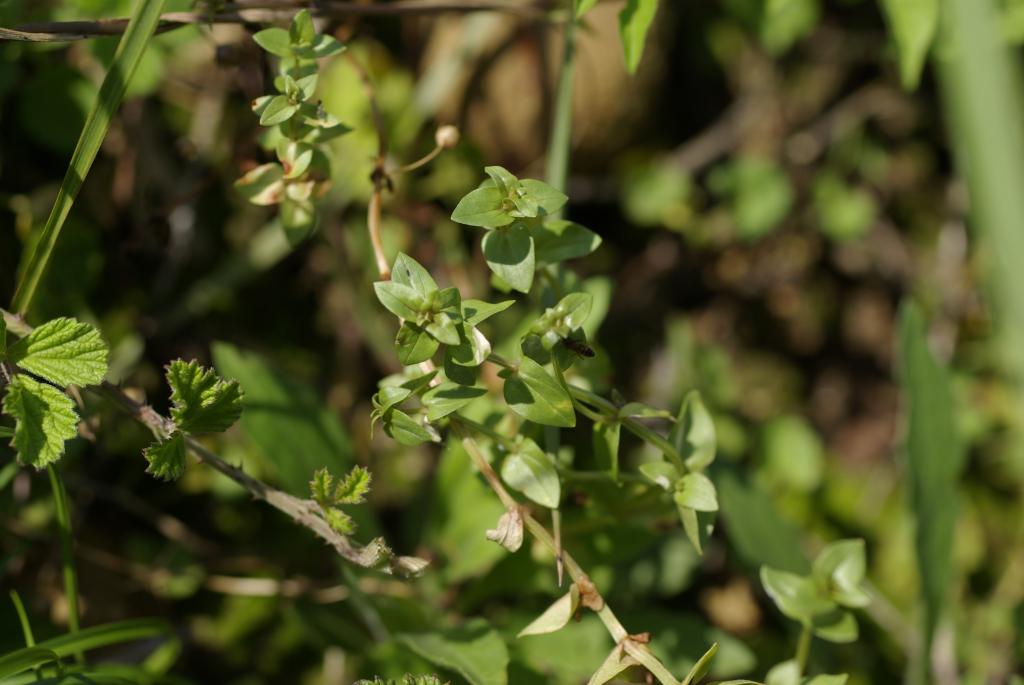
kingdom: Plantae
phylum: Tracheophyta
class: Magnoliopsida
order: Ericales
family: Primulaceae
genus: Lysimachia
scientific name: Lysimachia arvensis
